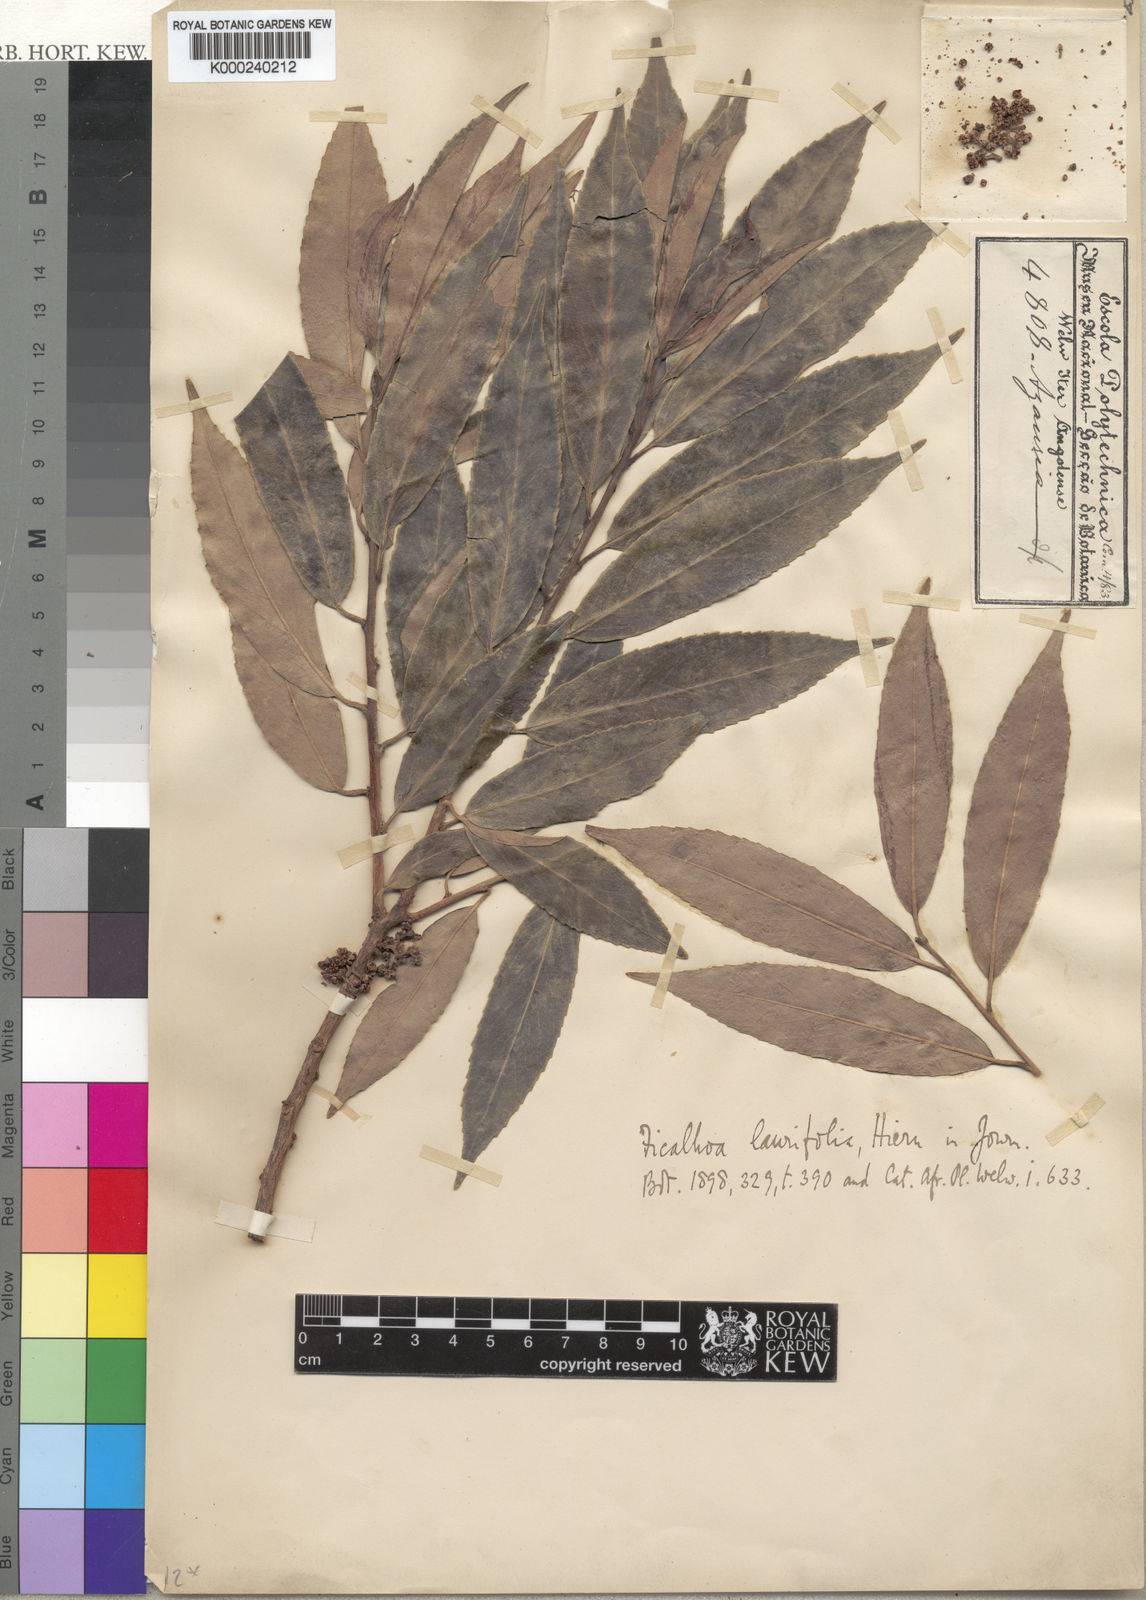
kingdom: Plantae
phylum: Tracheophyta
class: Magnoliopsida
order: Ericales
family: Sladeniaceae
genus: Ficalhoa
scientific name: Ficalhoa laurifolia
